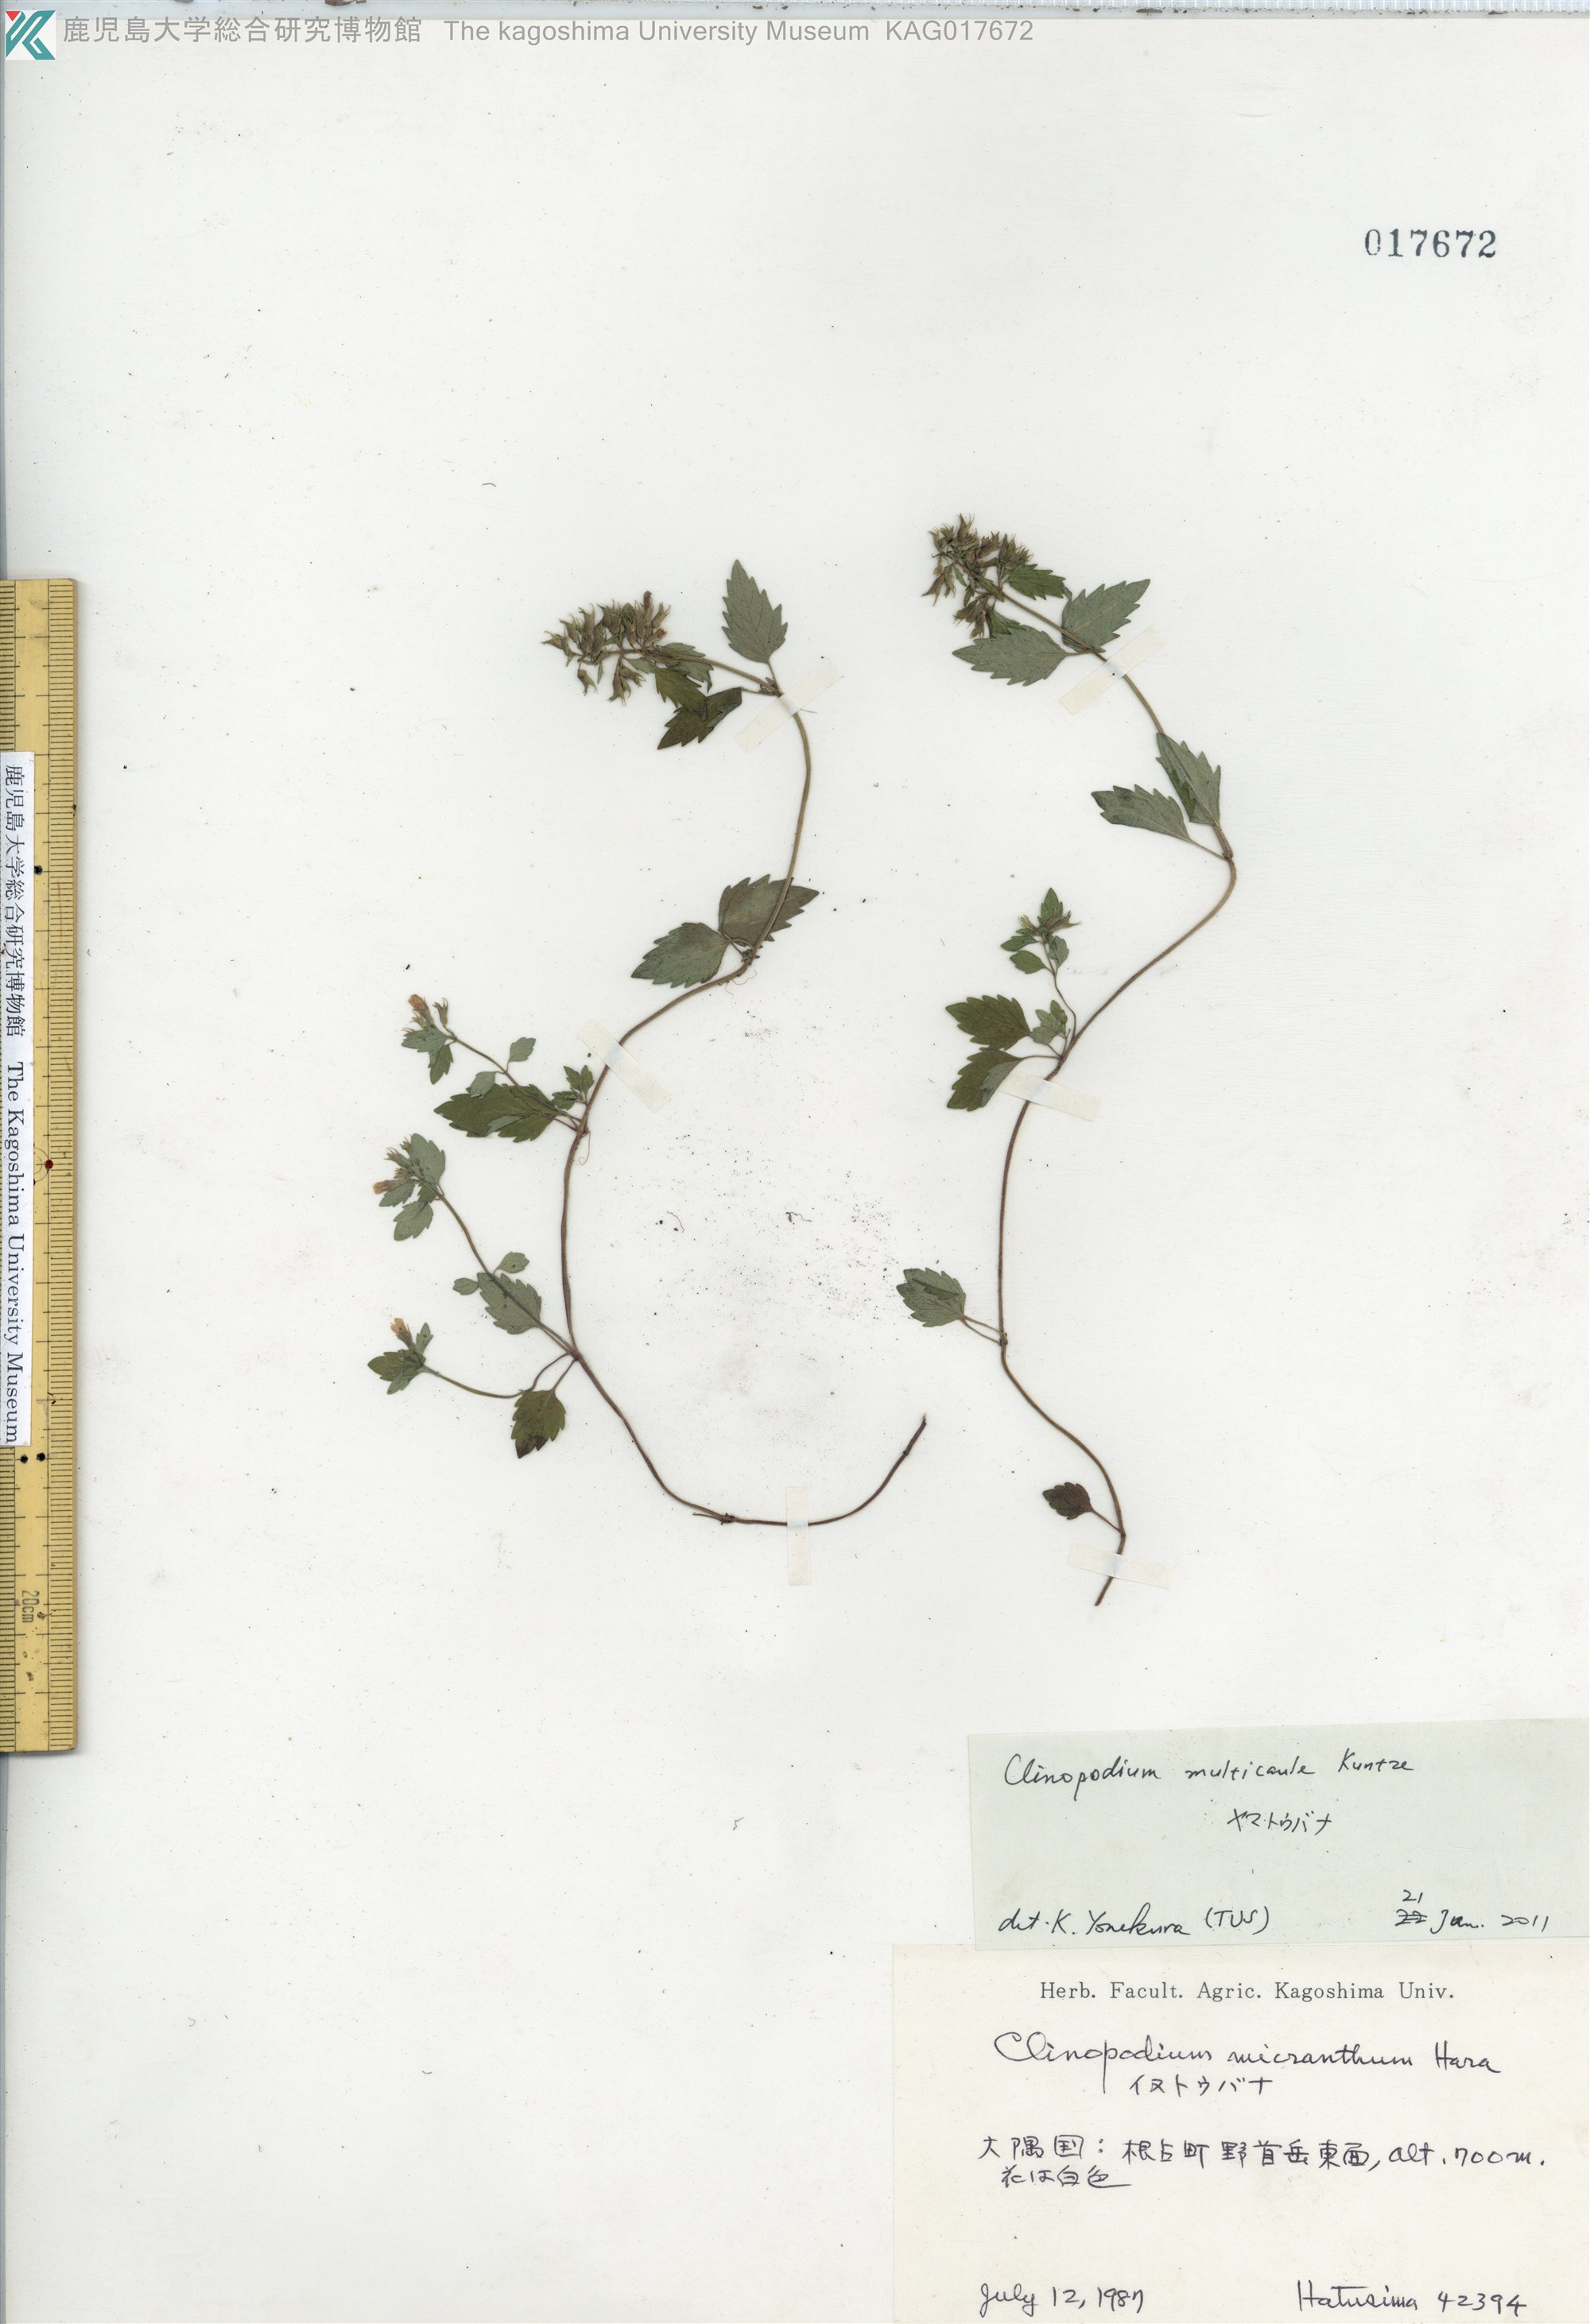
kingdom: Plantae
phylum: Tracheophyta
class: Magnoliopsida
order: Lamiales
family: Lamiaceae
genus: Clinopodium
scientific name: Clinopodium multicaule
